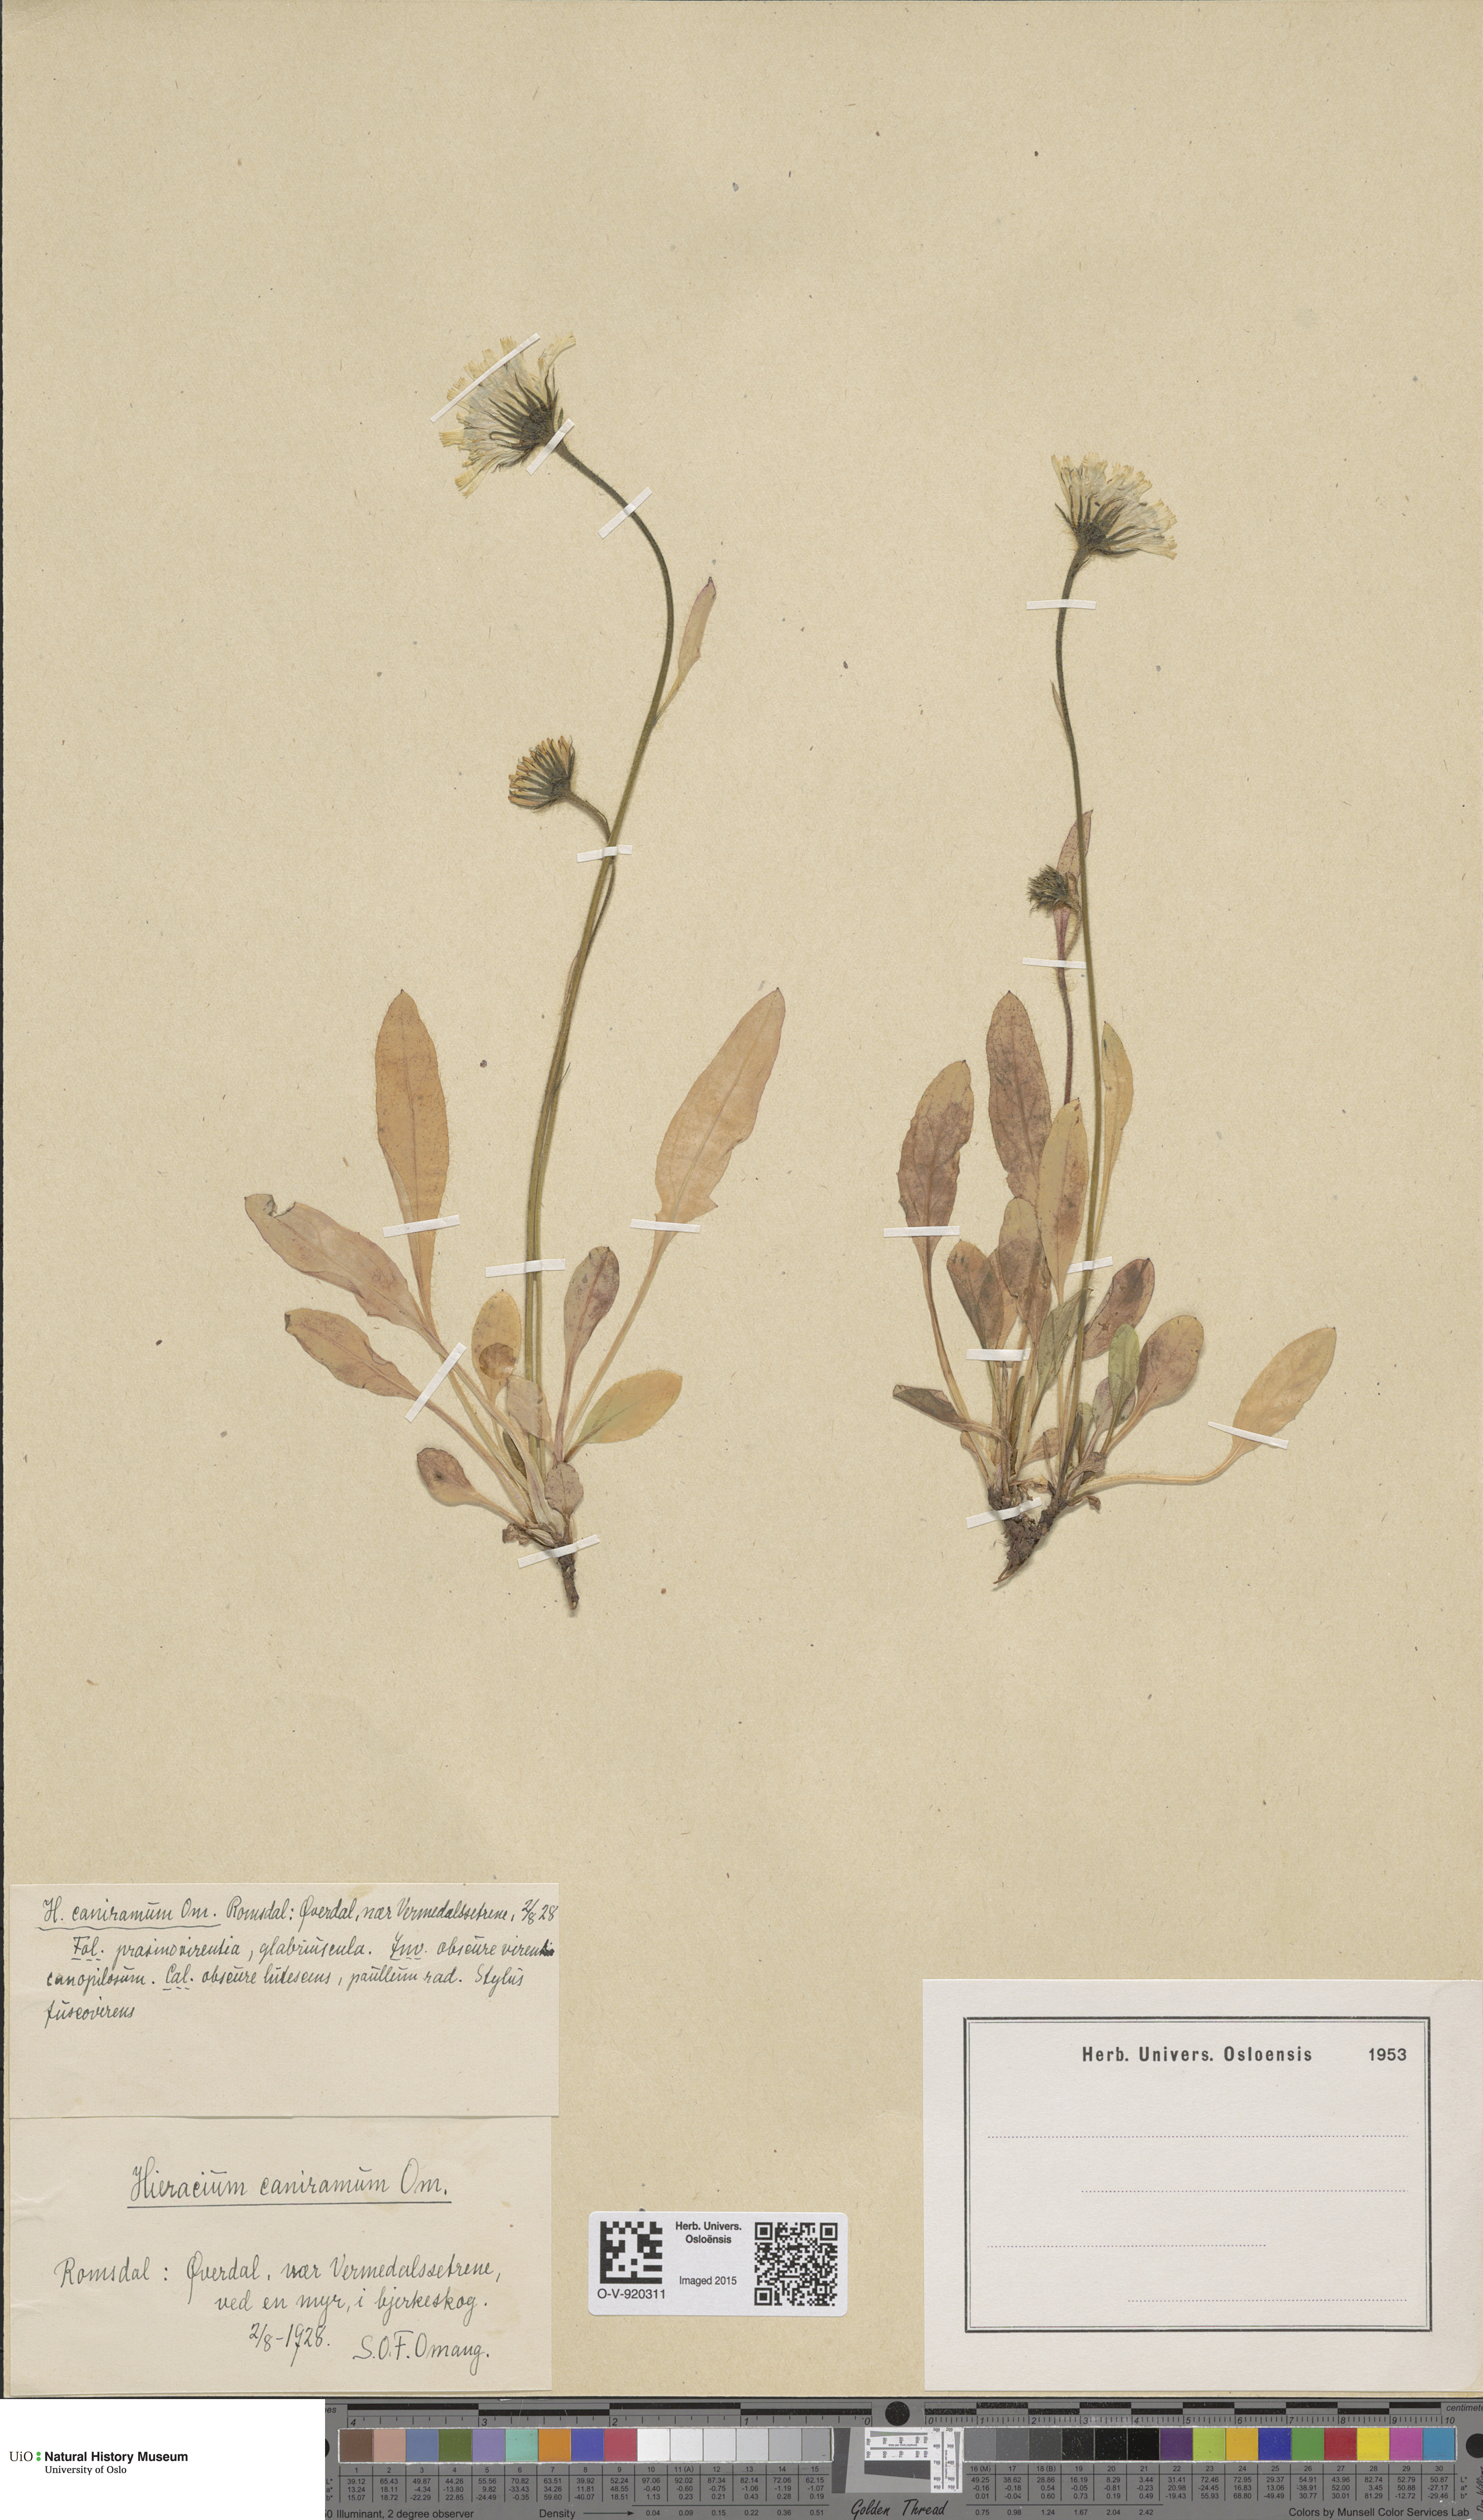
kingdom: Plantae
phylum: Tracheophyta
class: Magnoliopsida
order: Asterales
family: Asteraceae
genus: Hieracium
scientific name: Hieracium
